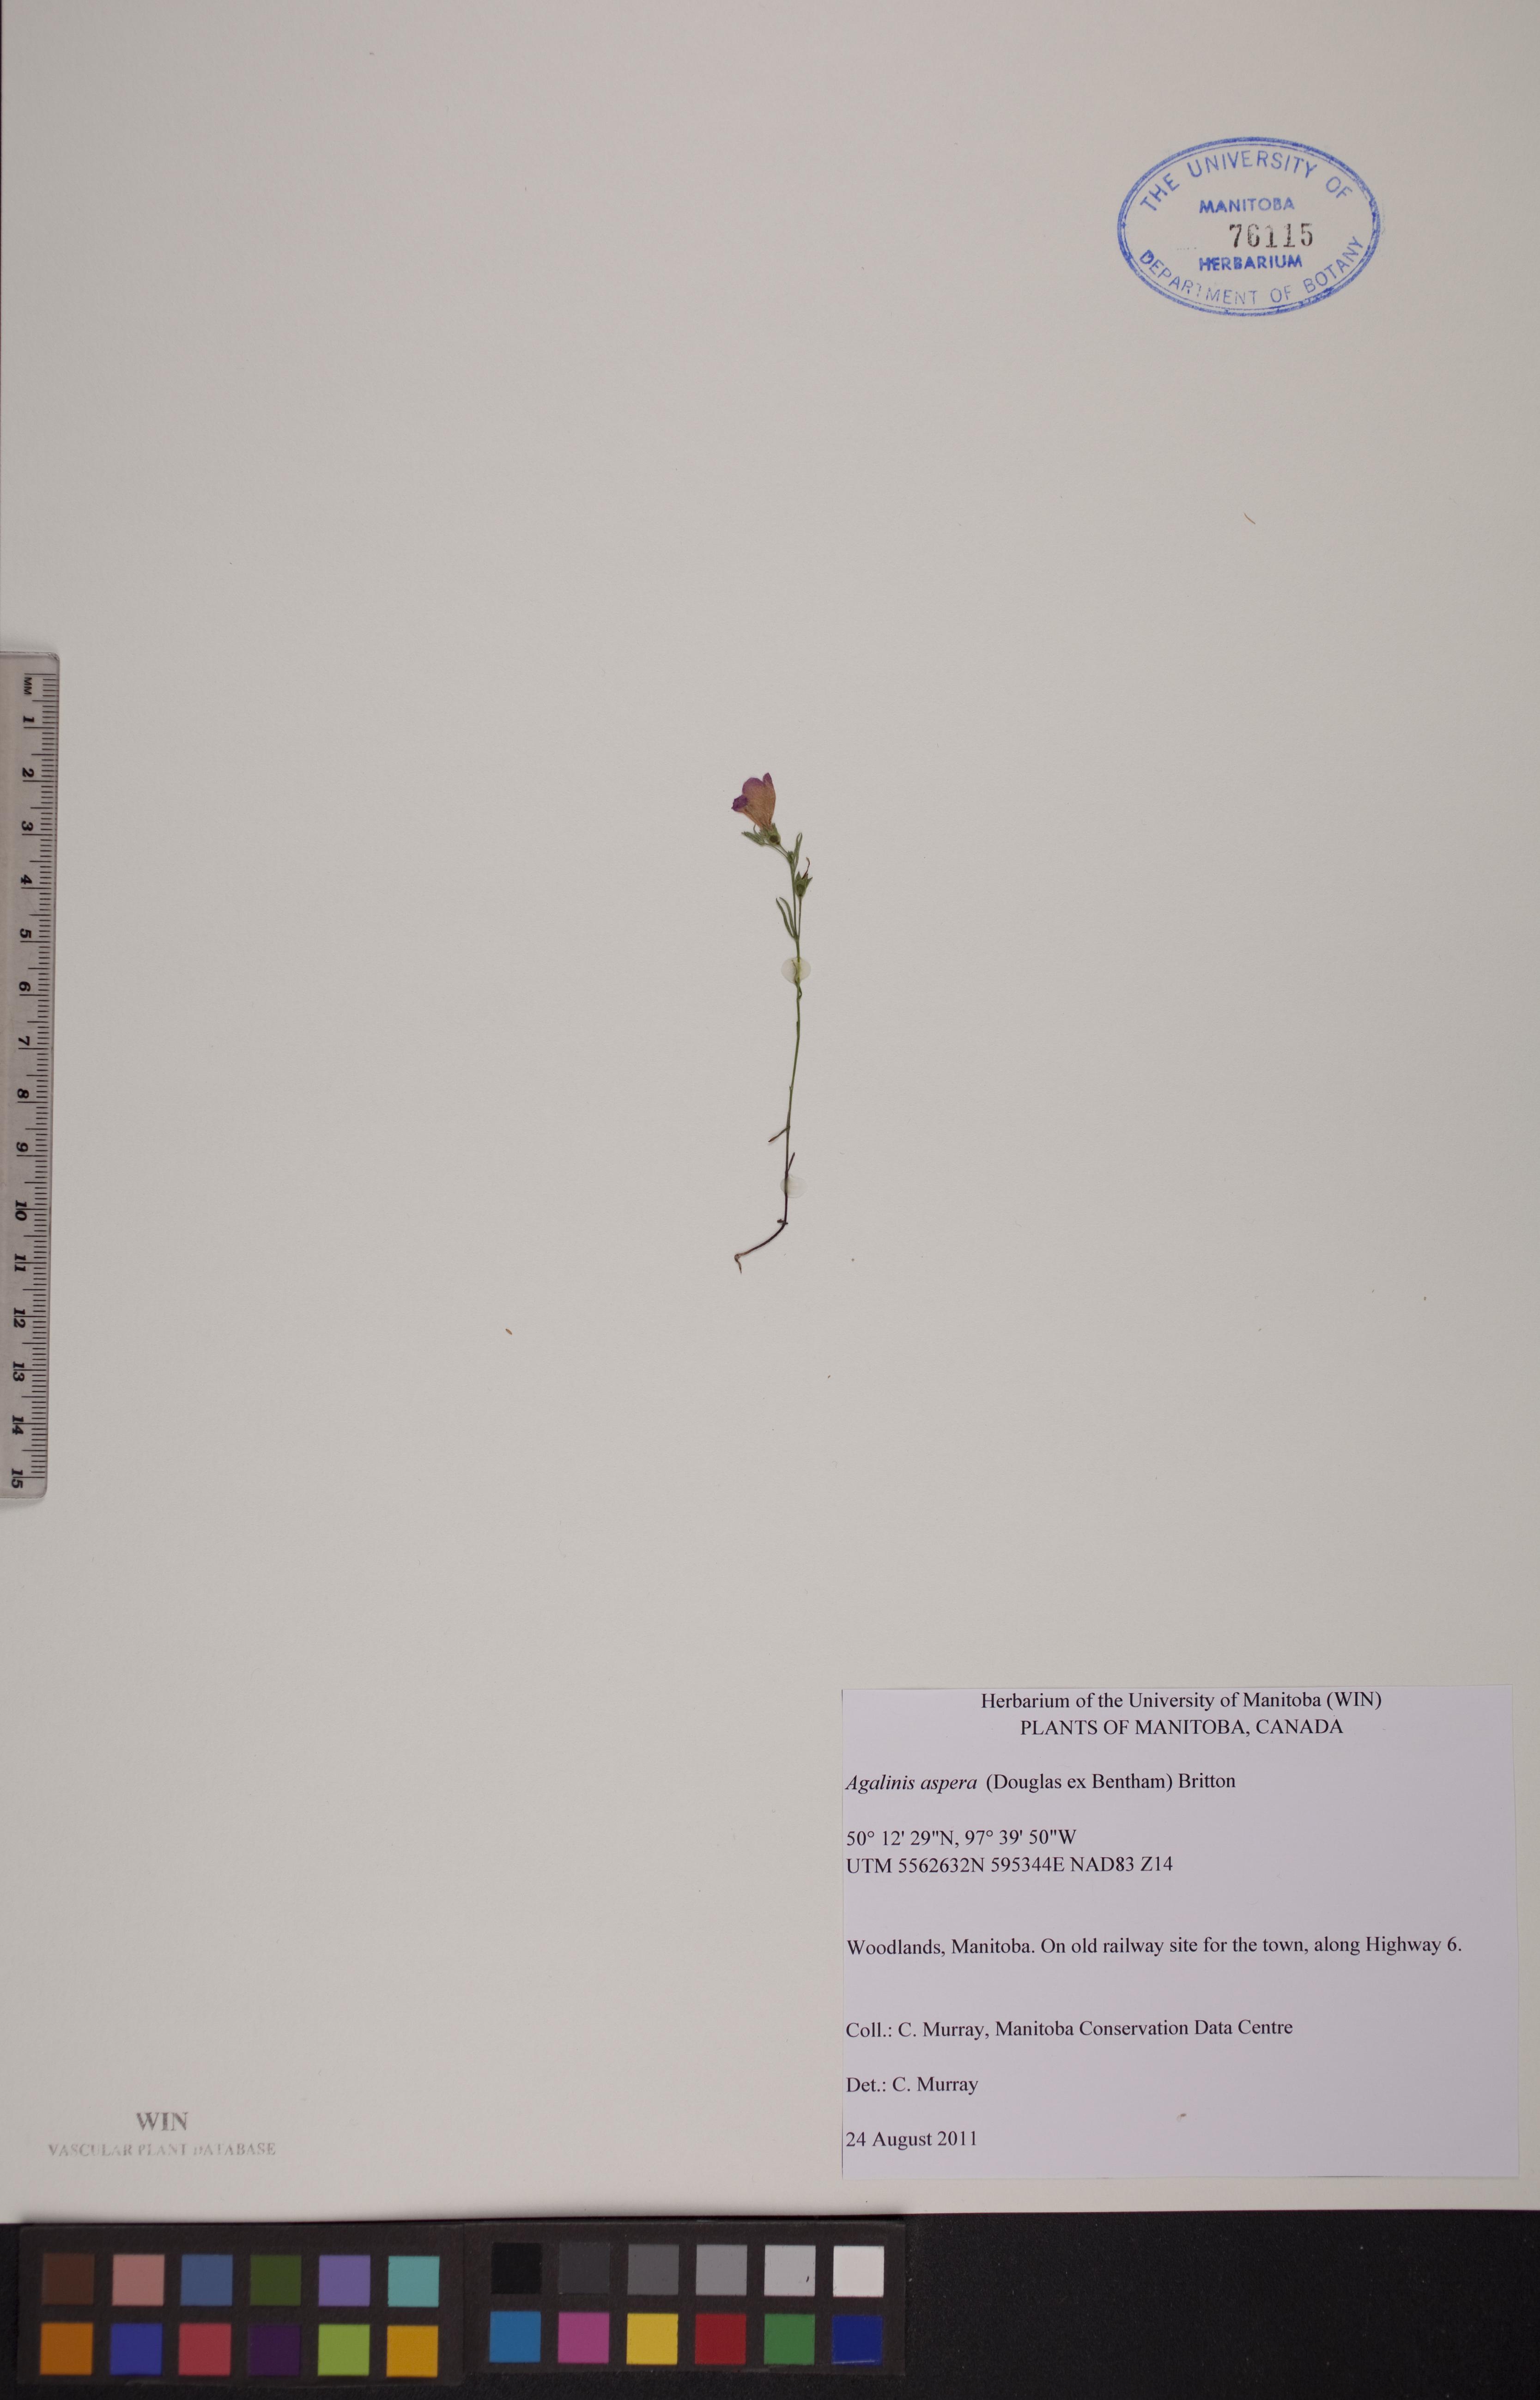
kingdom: Plantae
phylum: Tracheophyta
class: Magnoliopsida
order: Lamiales
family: Orobanchaceae
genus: Agalinis
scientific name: Agalinis aspera
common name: Rough agalinis
